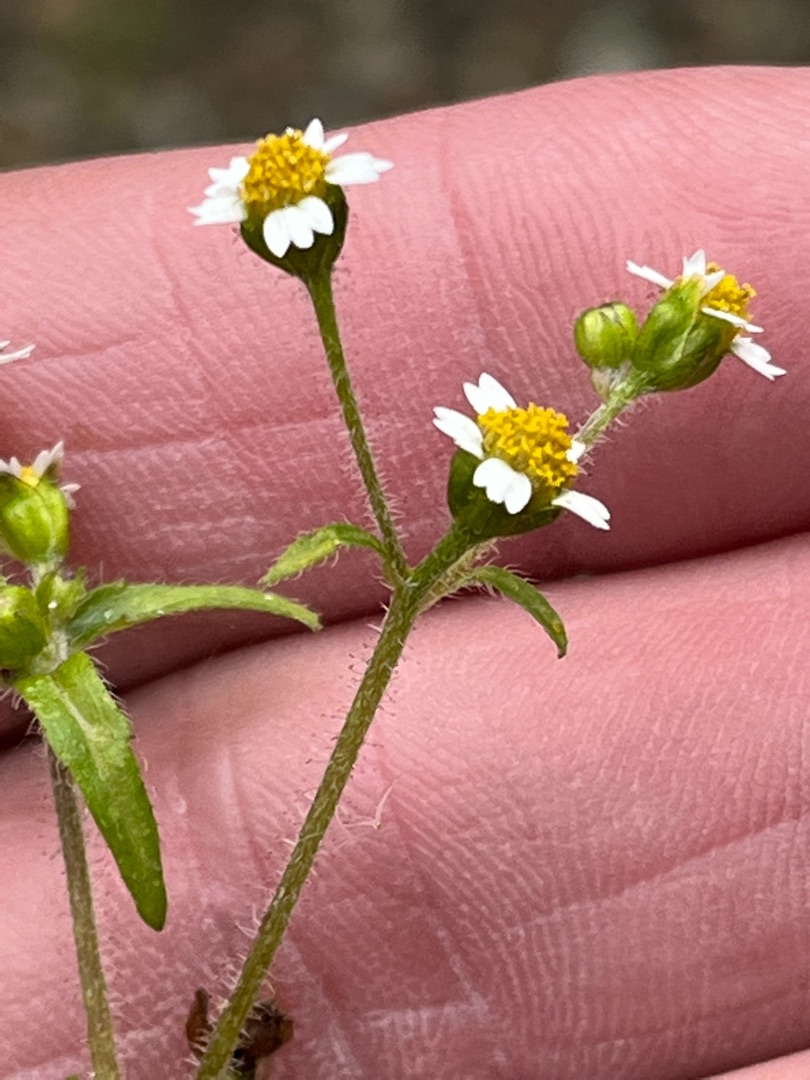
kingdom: Plantae
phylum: Tracheophyta
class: Magnoliopsida
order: Asterales
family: Asteraceae
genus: Galinsoga
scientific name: Galinsoga quadriradiata
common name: Kirtel-kortstråle
